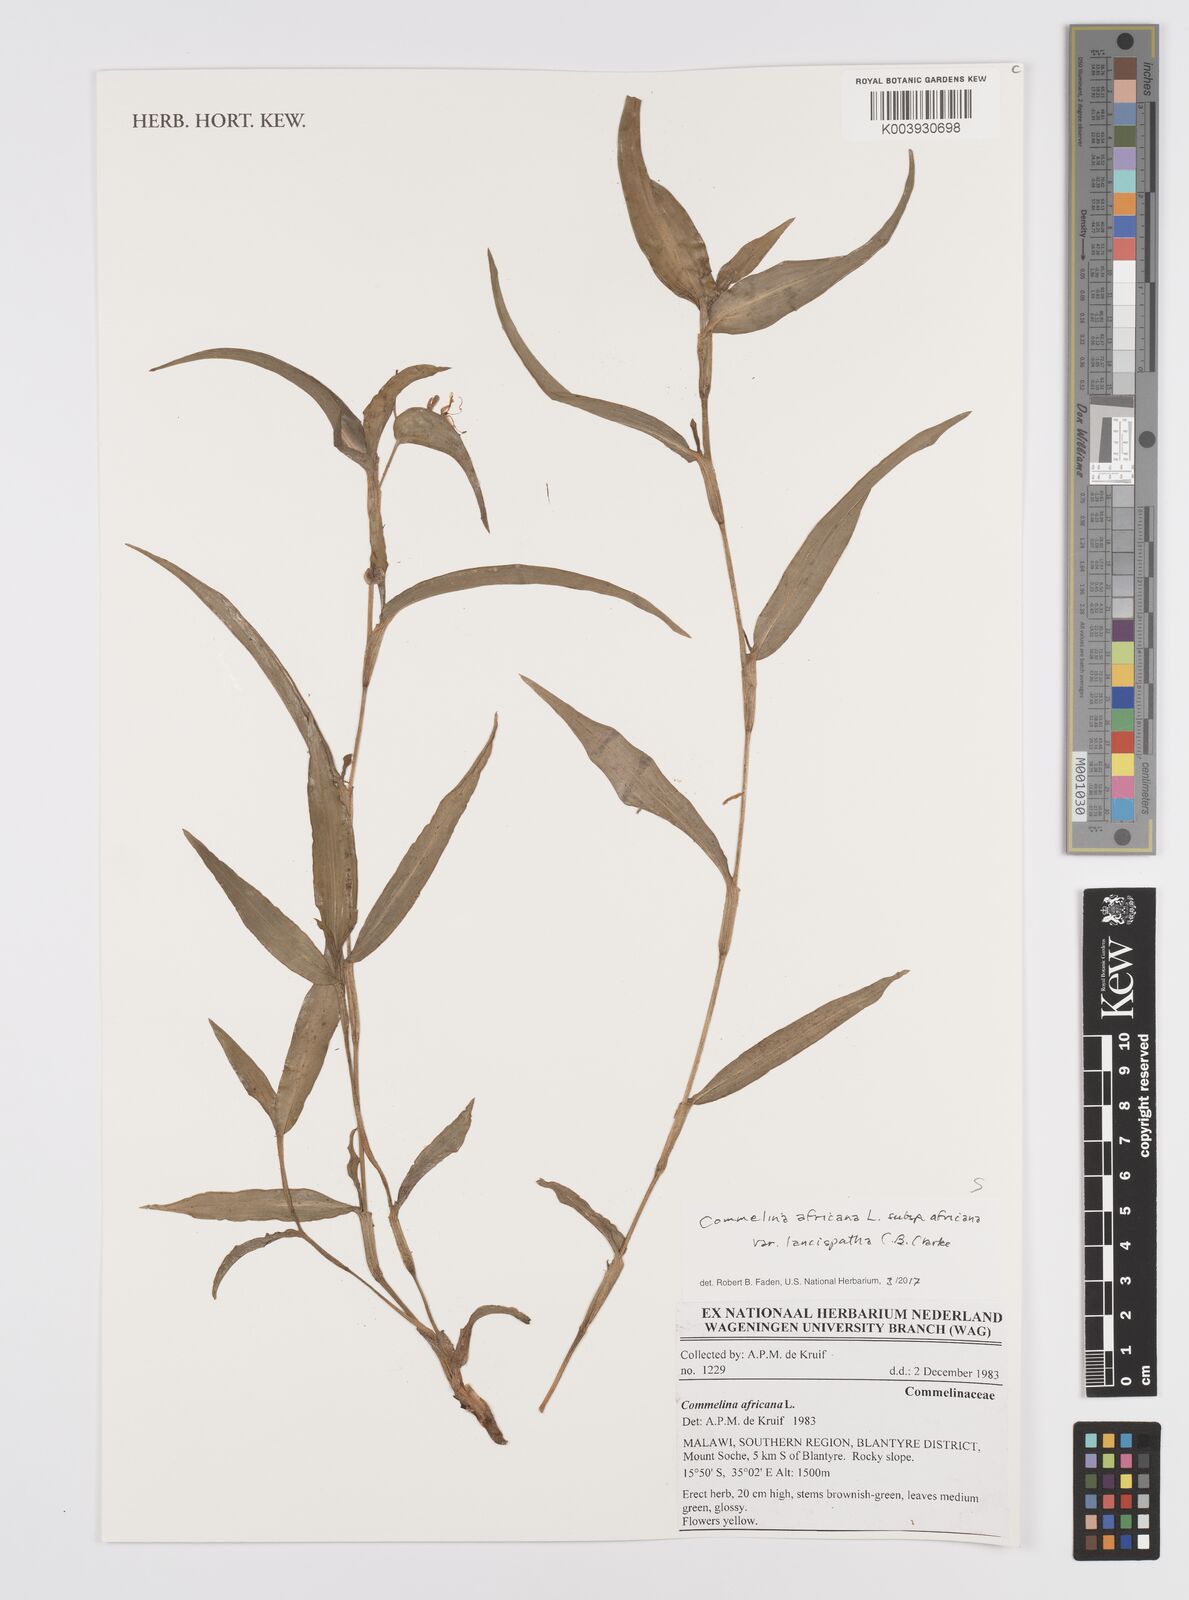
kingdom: Plantae
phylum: Tracheophyta
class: Liliopsida
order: Commelinales
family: Commelinaceae
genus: Commelina
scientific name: Commelina africana
